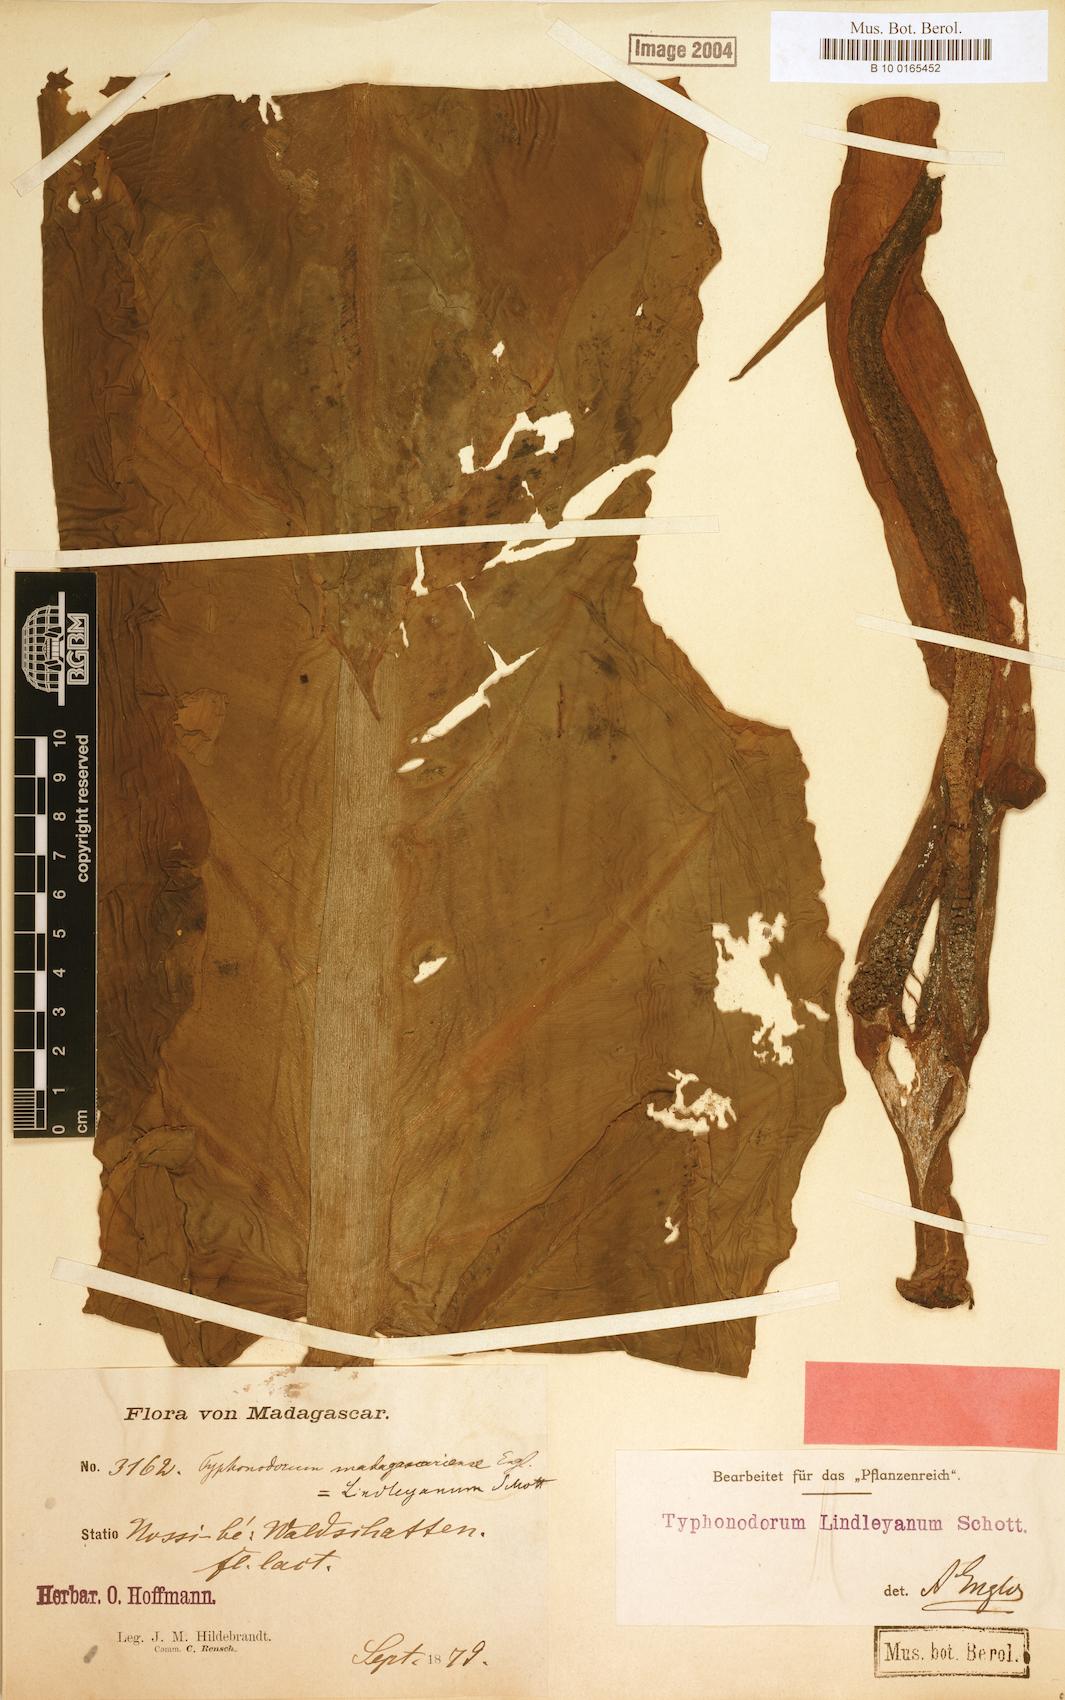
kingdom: Plantae
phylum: Tracheophyta
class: Liliopsida
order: Alismatales
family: Araceae
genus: Typhonodorum
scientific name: Typhonodorum lindleyanum
